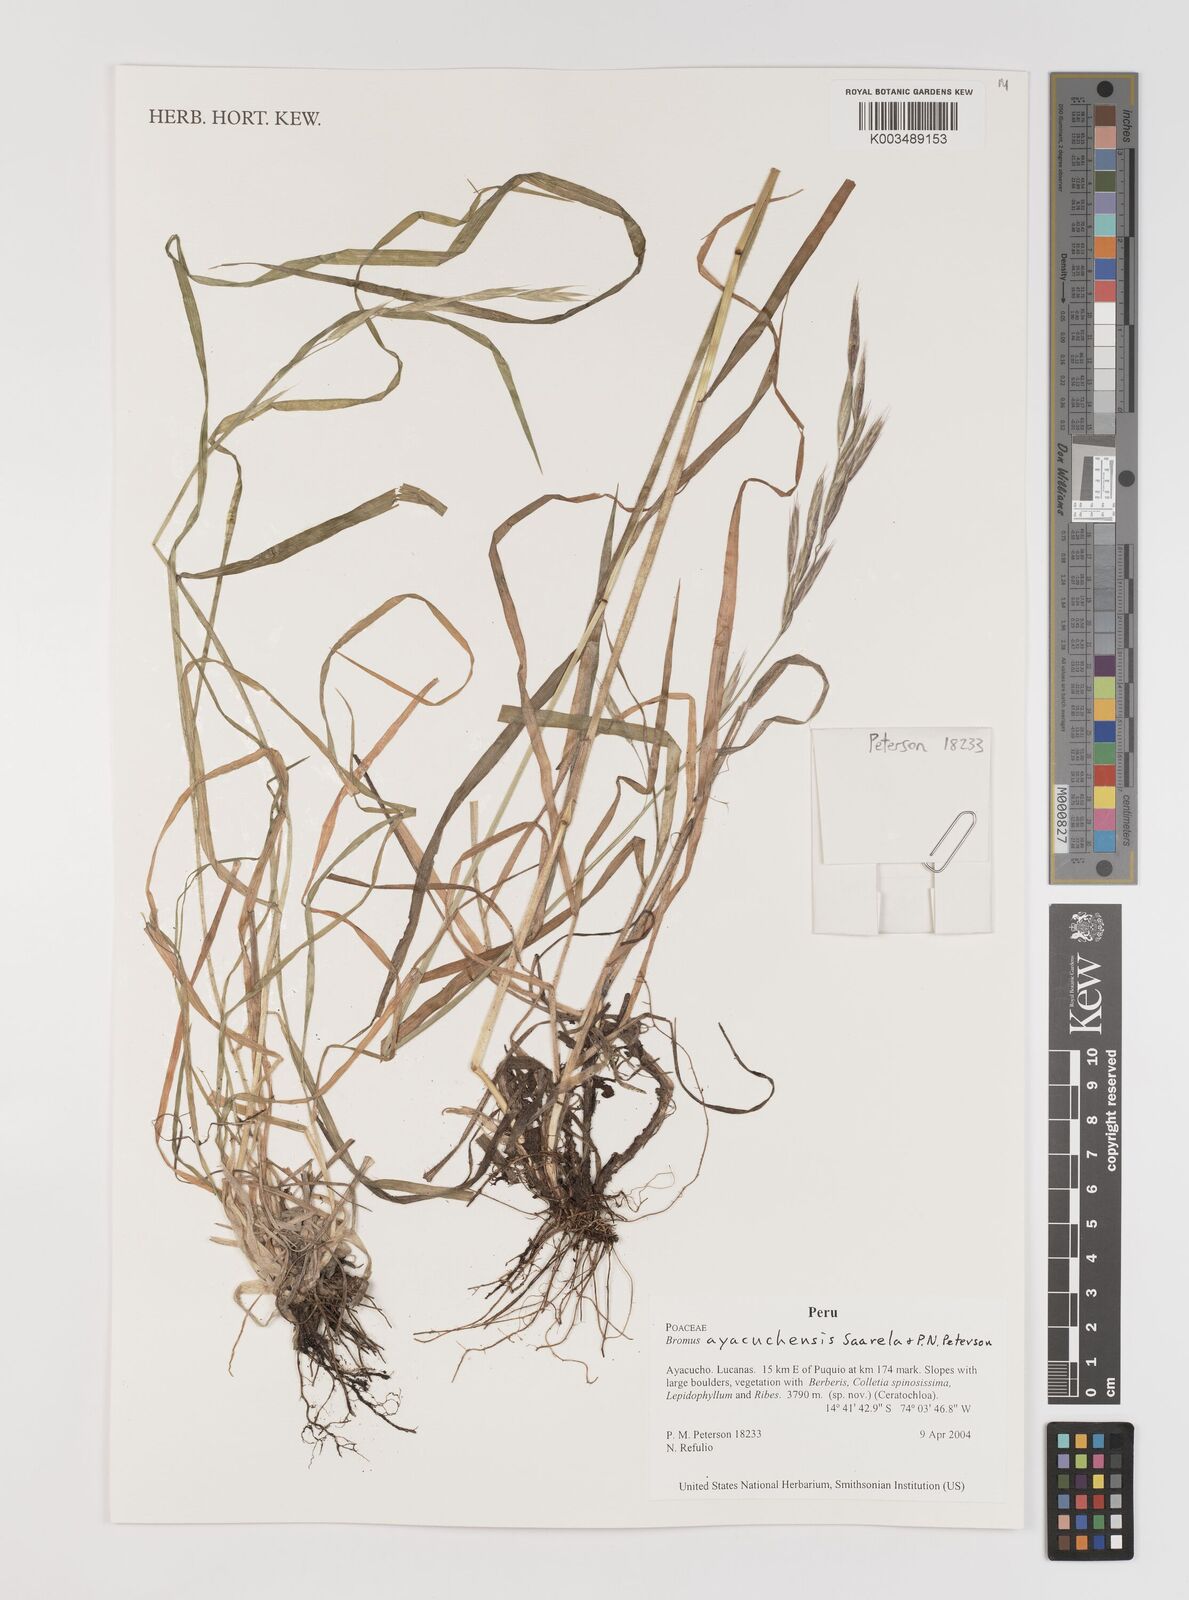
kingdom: Plantae
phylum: Tracheophyta
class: Liliopsida
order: Poales
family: Poaceae
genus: Bromus
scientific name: Bromus ayacuchensis
